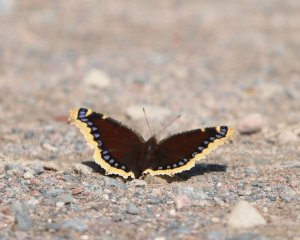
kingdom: Animalia
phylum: Arthropoda
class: Insecta
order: Lepidoptera
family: Nymphalidae
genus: Nymphalis
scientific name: Nymphalis antiopa
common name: Mourning Cloak
